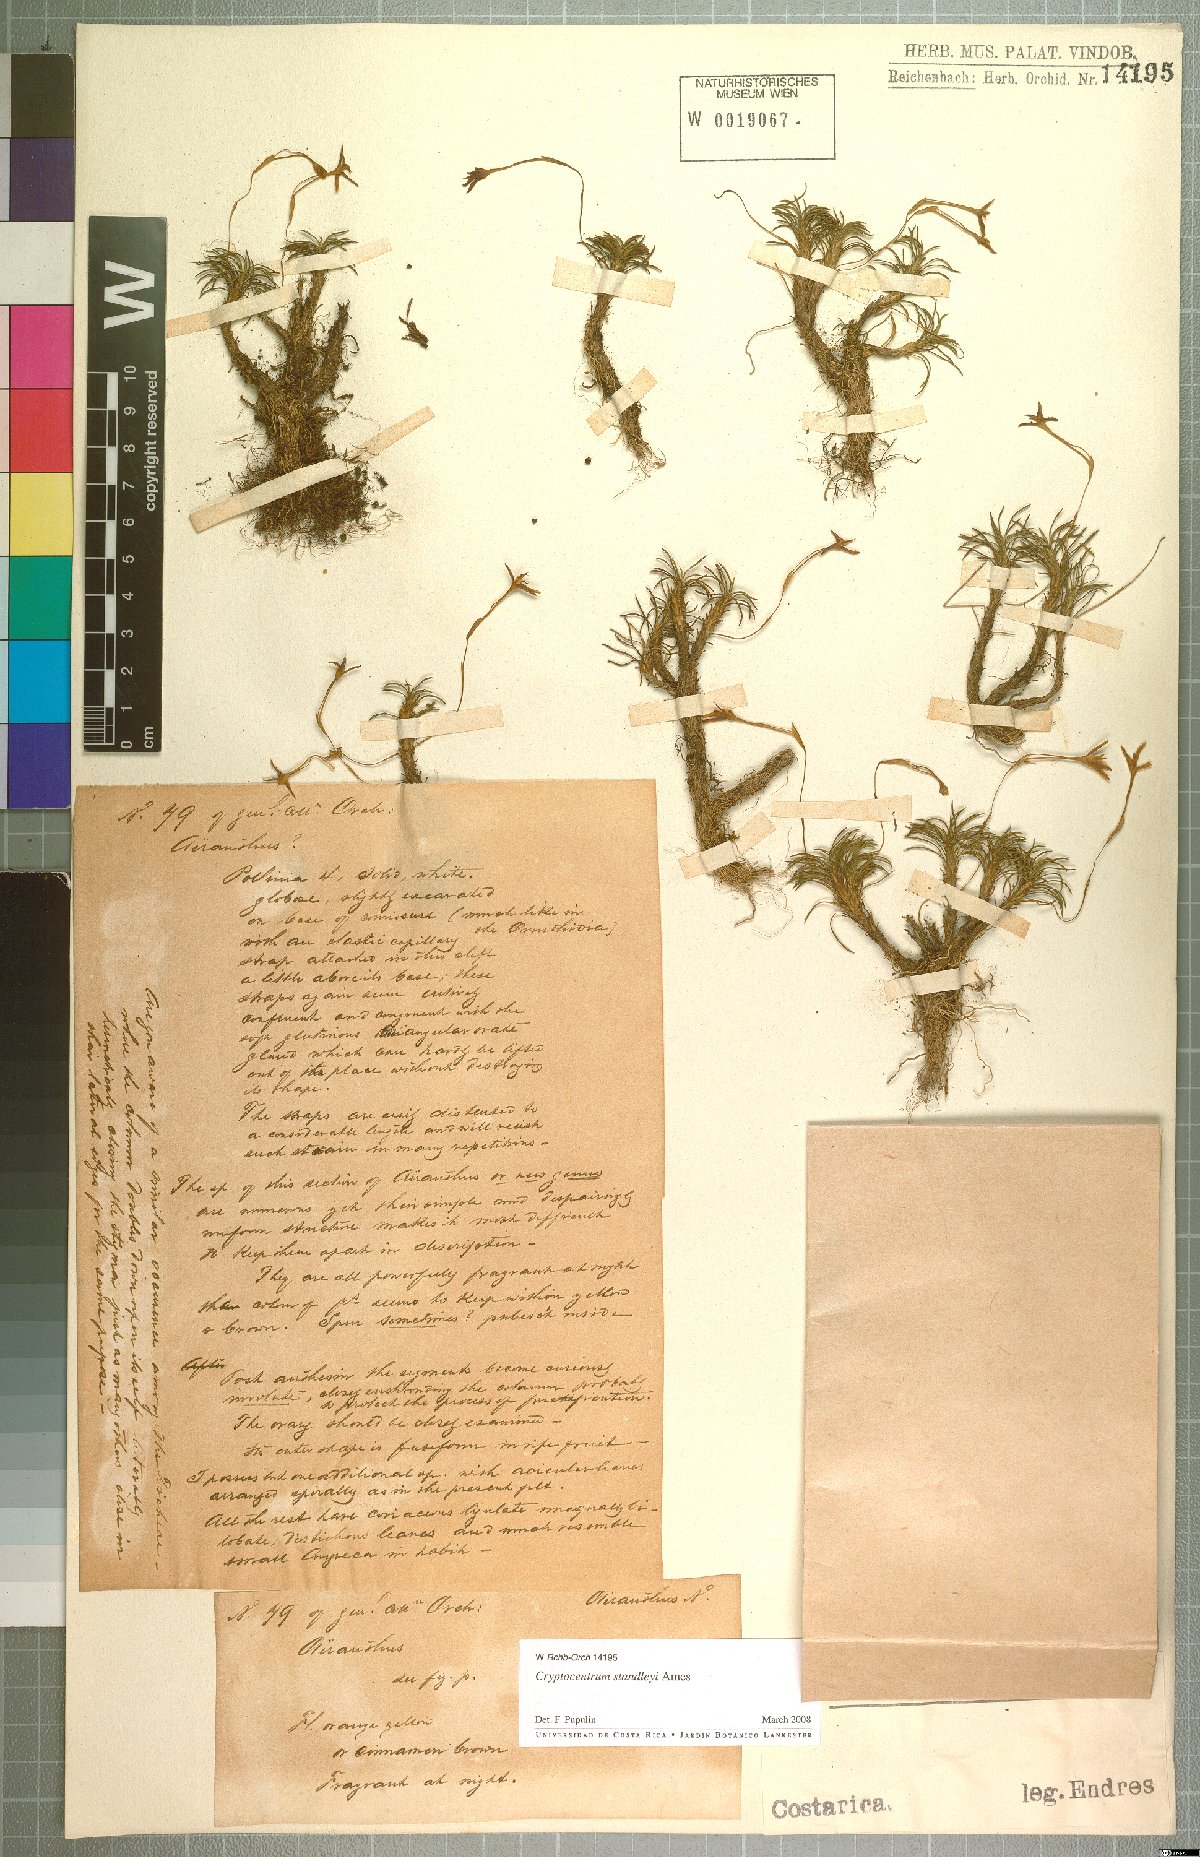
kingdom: Plantae
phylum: Tracheophyta
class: Liliopsida
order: Asparagales
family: Orchidaceae
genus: Maxillaria
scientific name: Maxillaria standleyi
